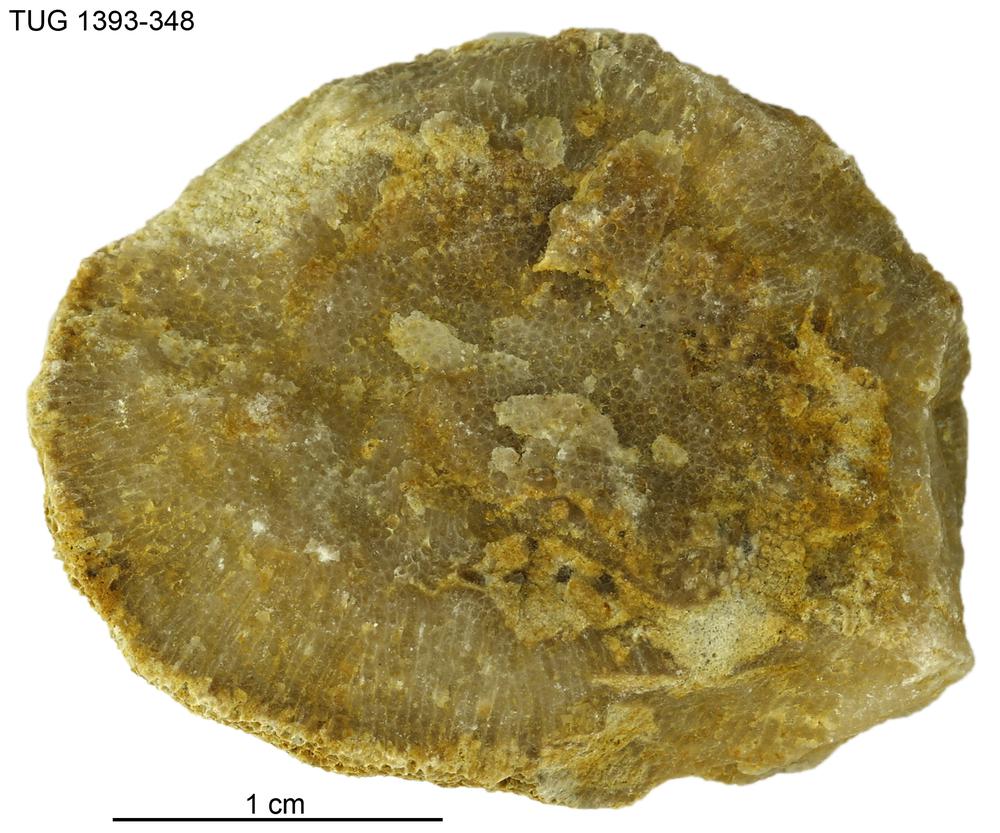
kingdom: Animalia
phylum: Bryozoa
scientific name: Bryozoa
